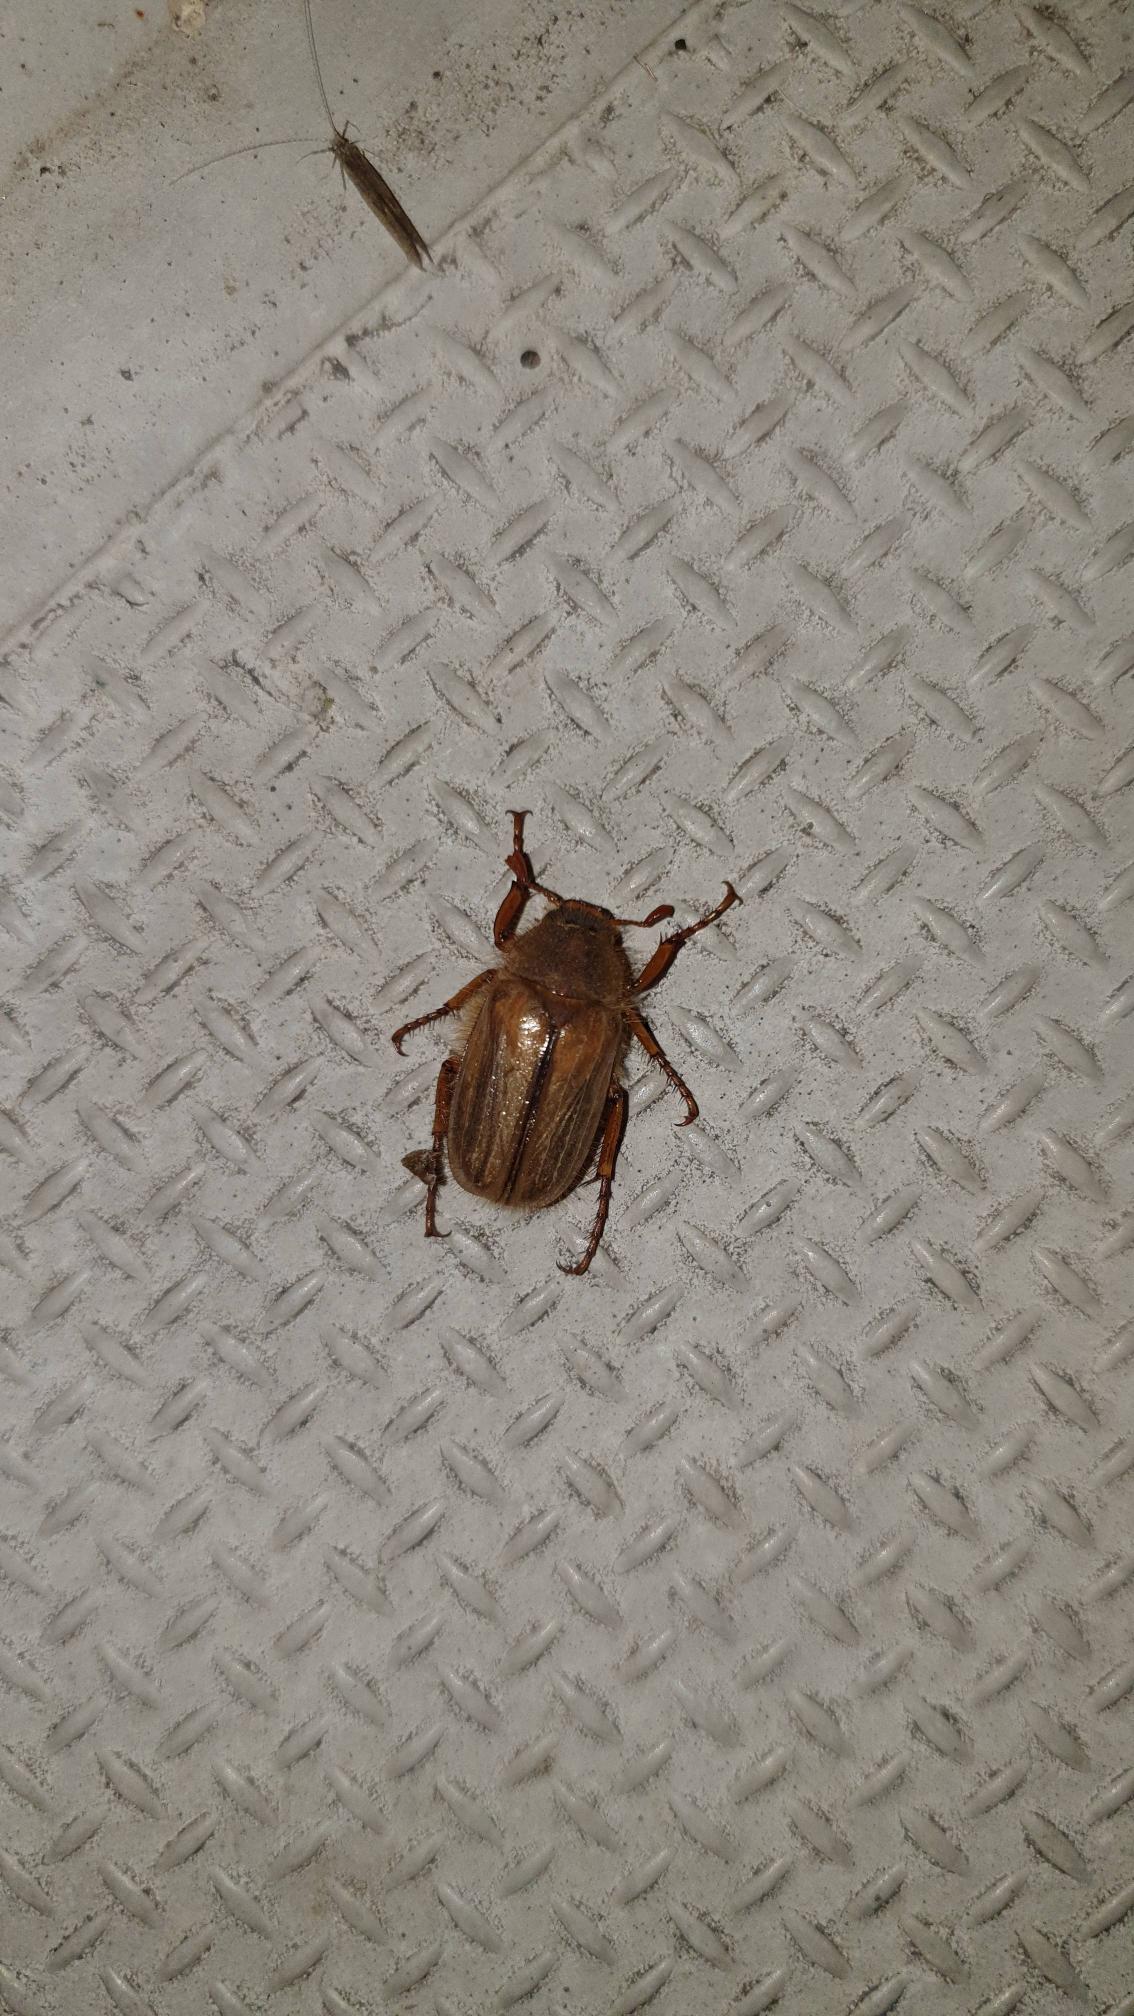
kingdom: Animalia
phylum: Arthropoda
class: Insecta
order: Coleoptera
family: Scarabaeidae
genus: Amphimallon
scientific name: Amphimallon solstitiale
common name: Sankthansoldenborre
